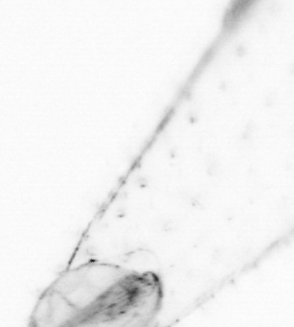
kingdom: Animalia
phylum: Chaetognatha
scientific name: Chaetognatha
